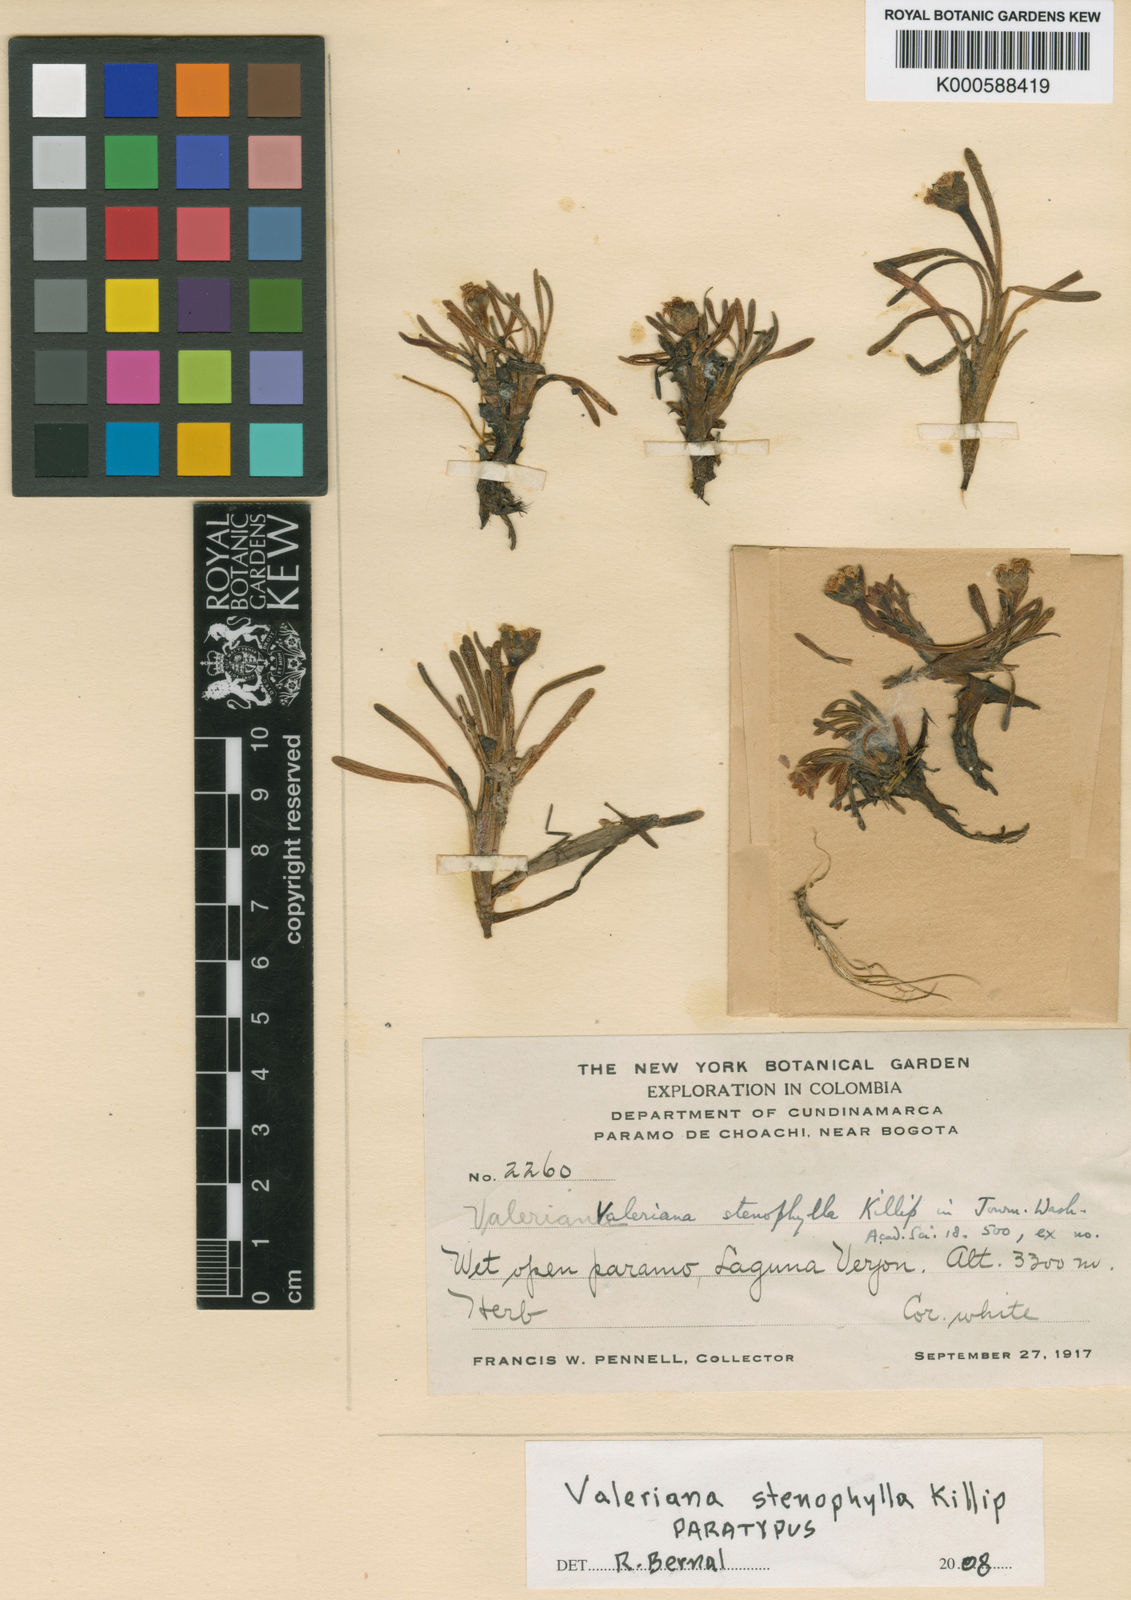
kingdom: Plantae
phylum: Tracheophyta
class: Magnoliopsida
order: Dipsacales
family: Caprifoliaceae
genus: Valeriana
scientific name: Valeriana stenophylla
